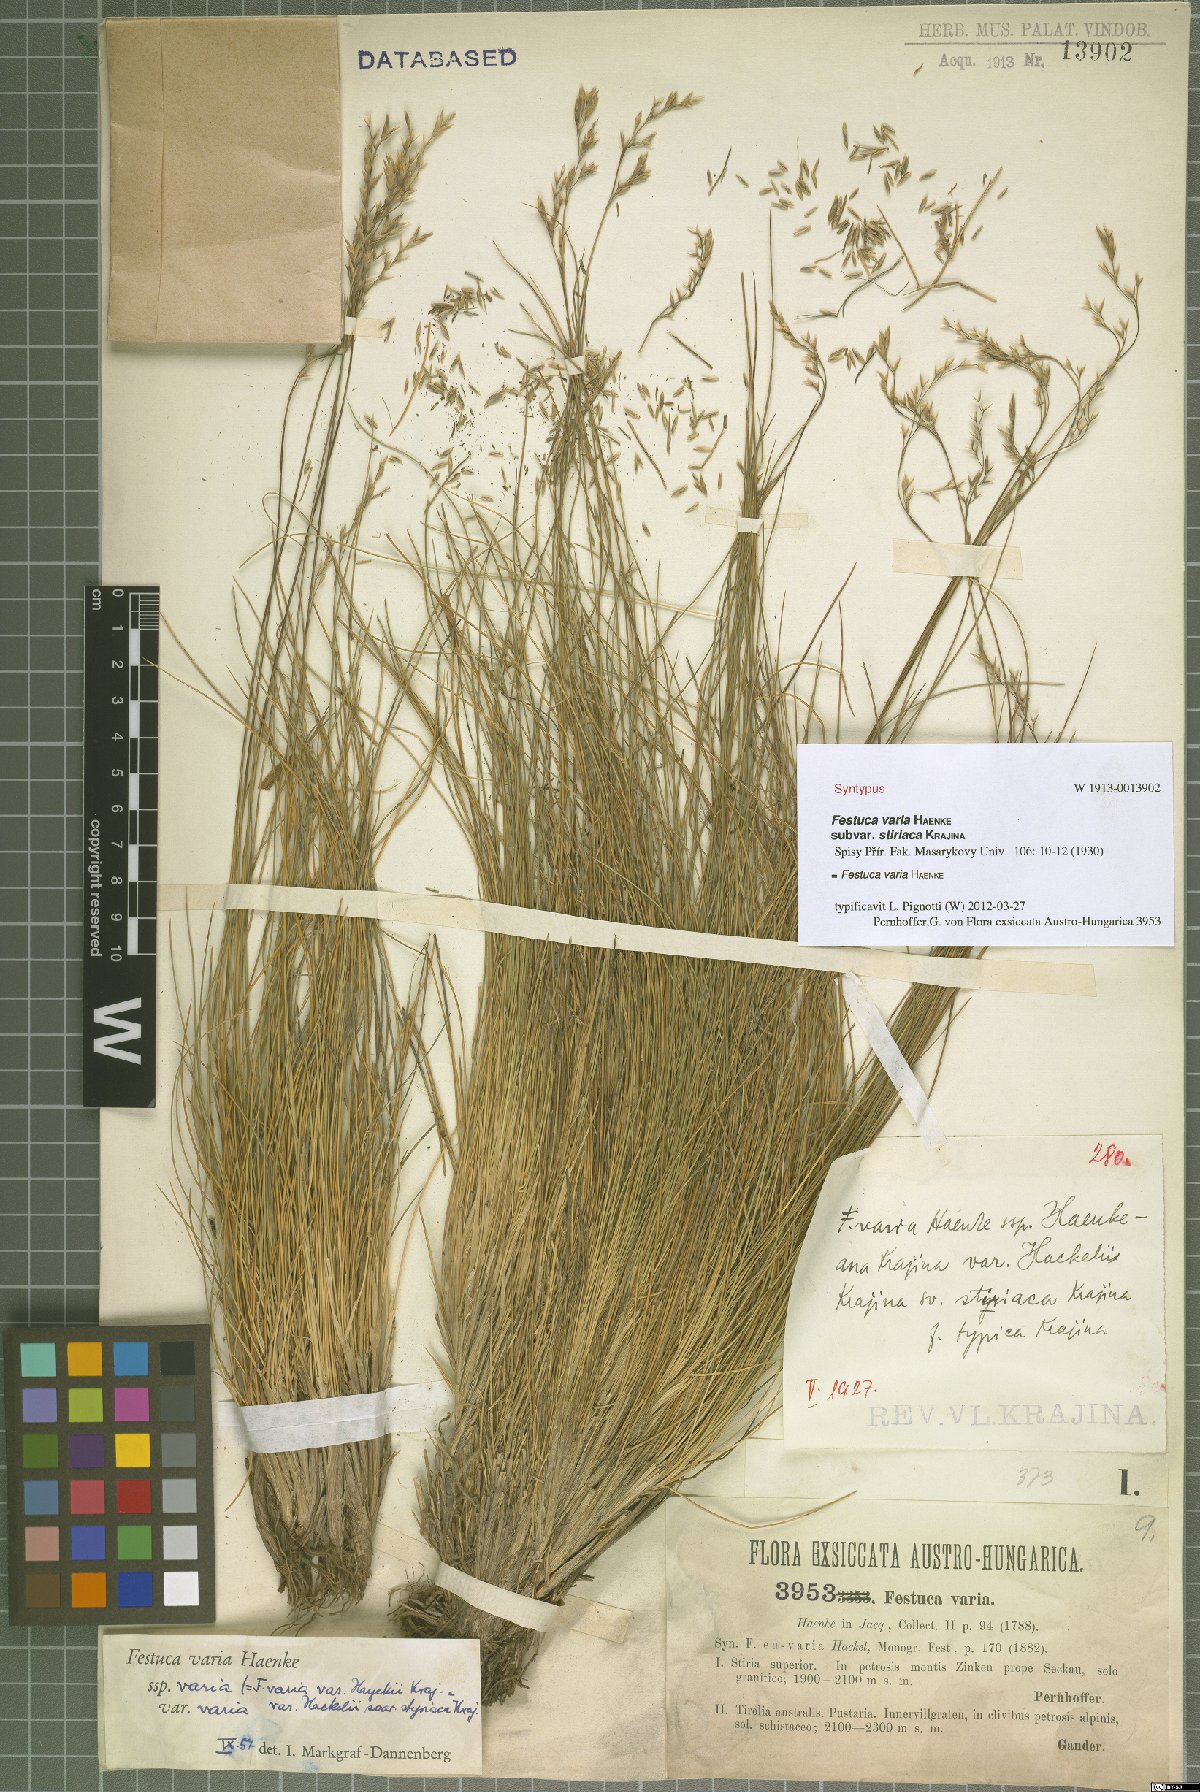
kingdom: Plantae
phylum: Tracheophyta
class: Liliopsida
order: Poales
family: Poaceae
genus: Festuca
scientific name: Festuca varia
